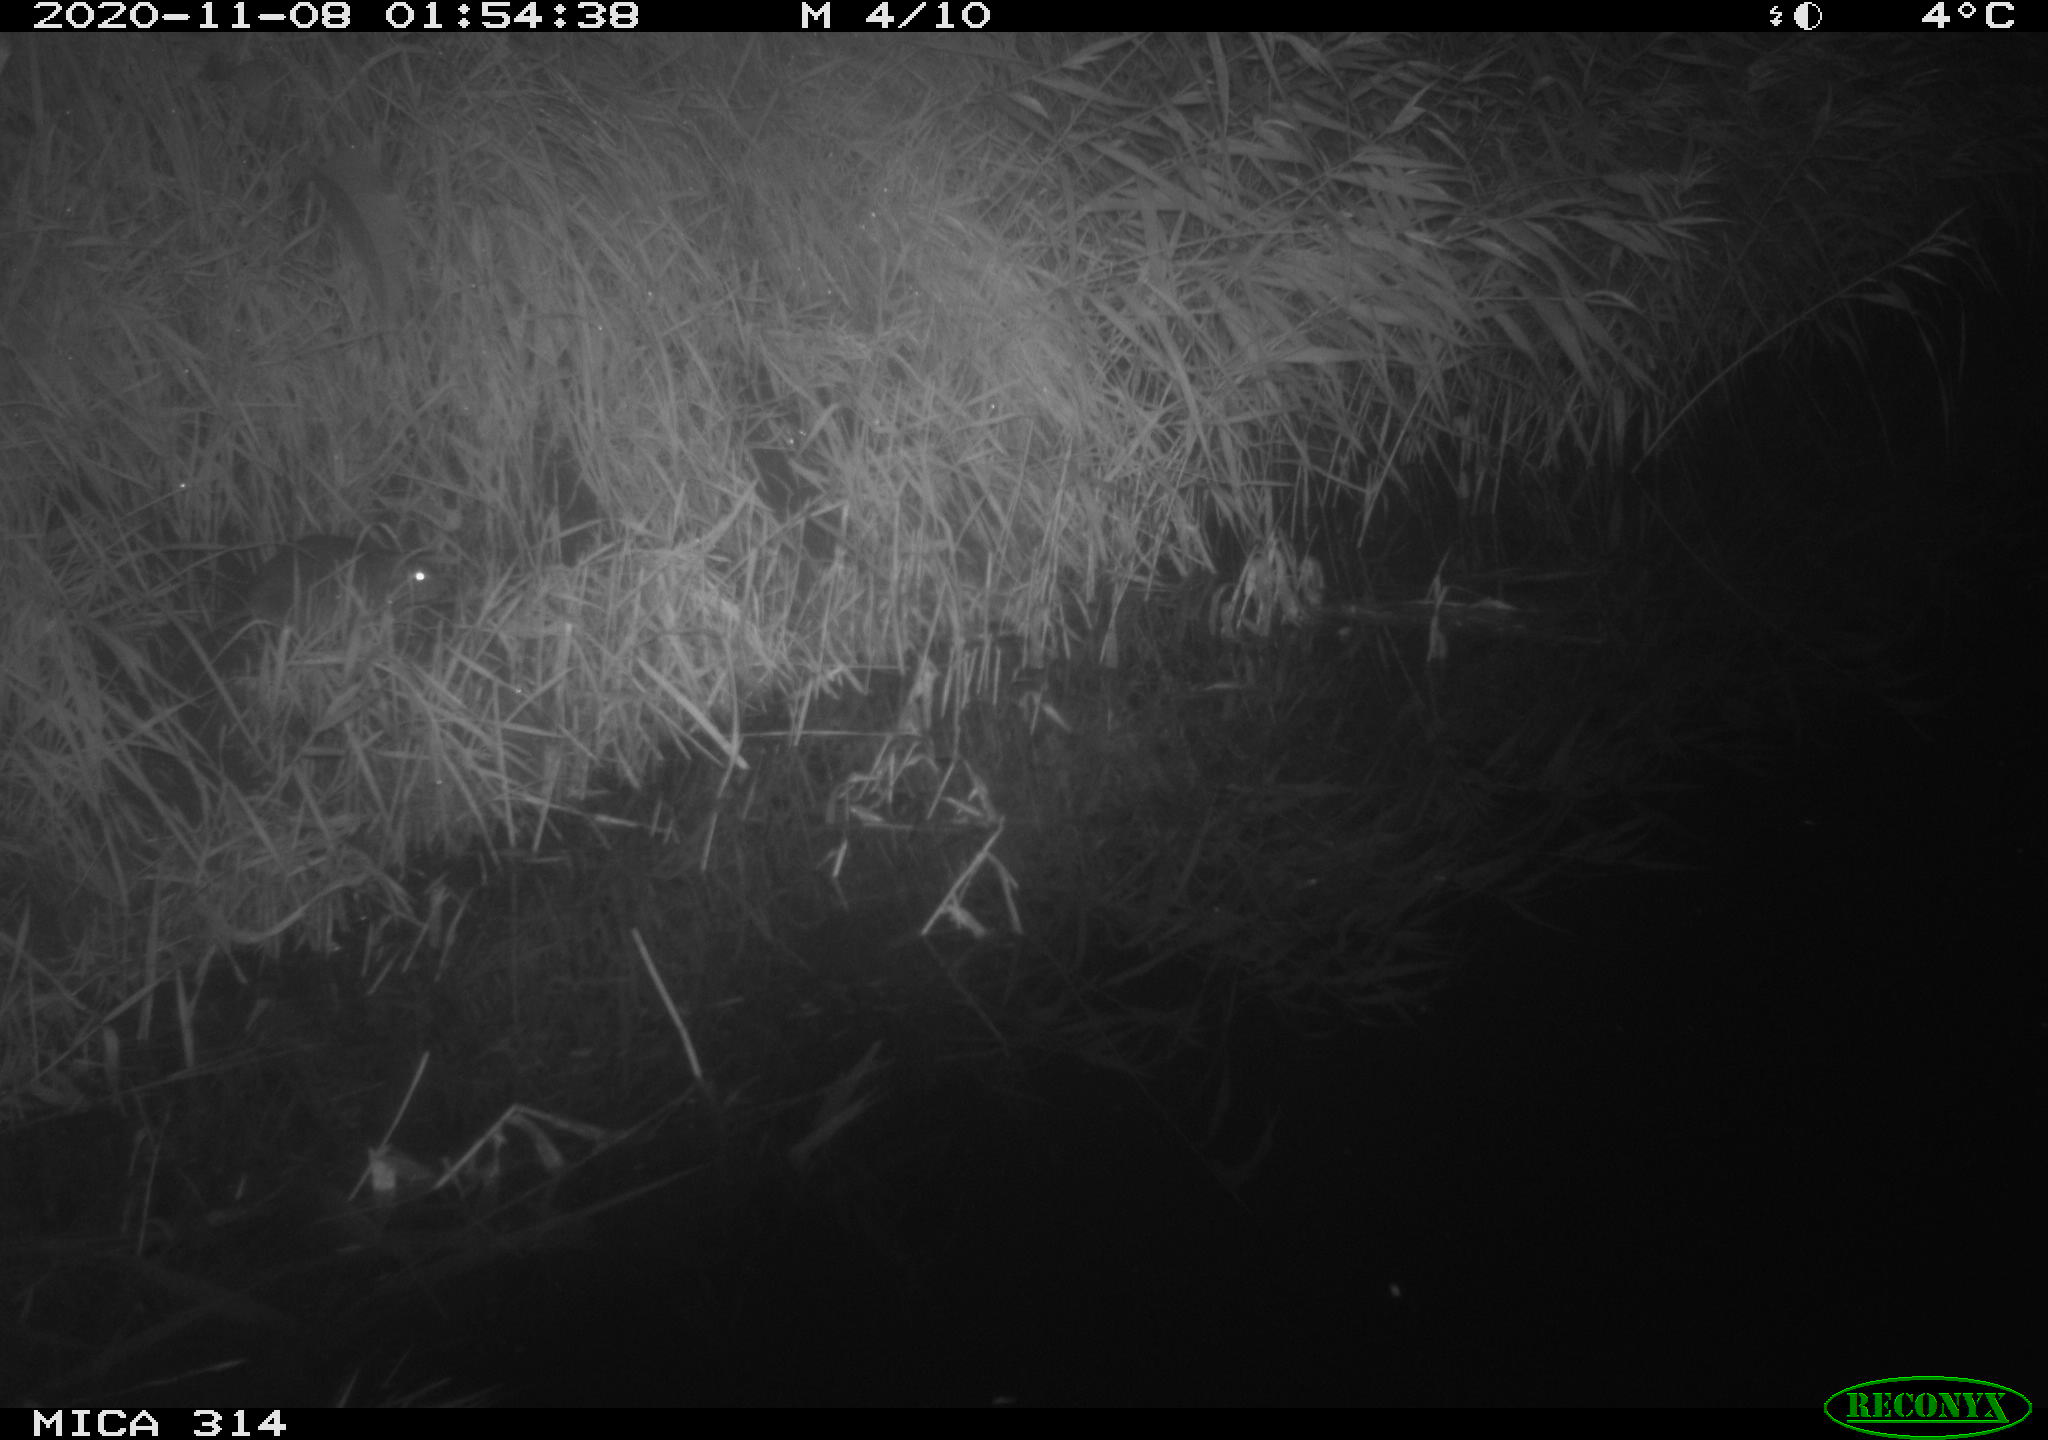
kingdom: Animalia
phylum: Chordata
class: Mammalia
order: Rodentia
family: Muridae
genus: Rattus
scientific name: Rattus norvegicus
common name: Brown rat
